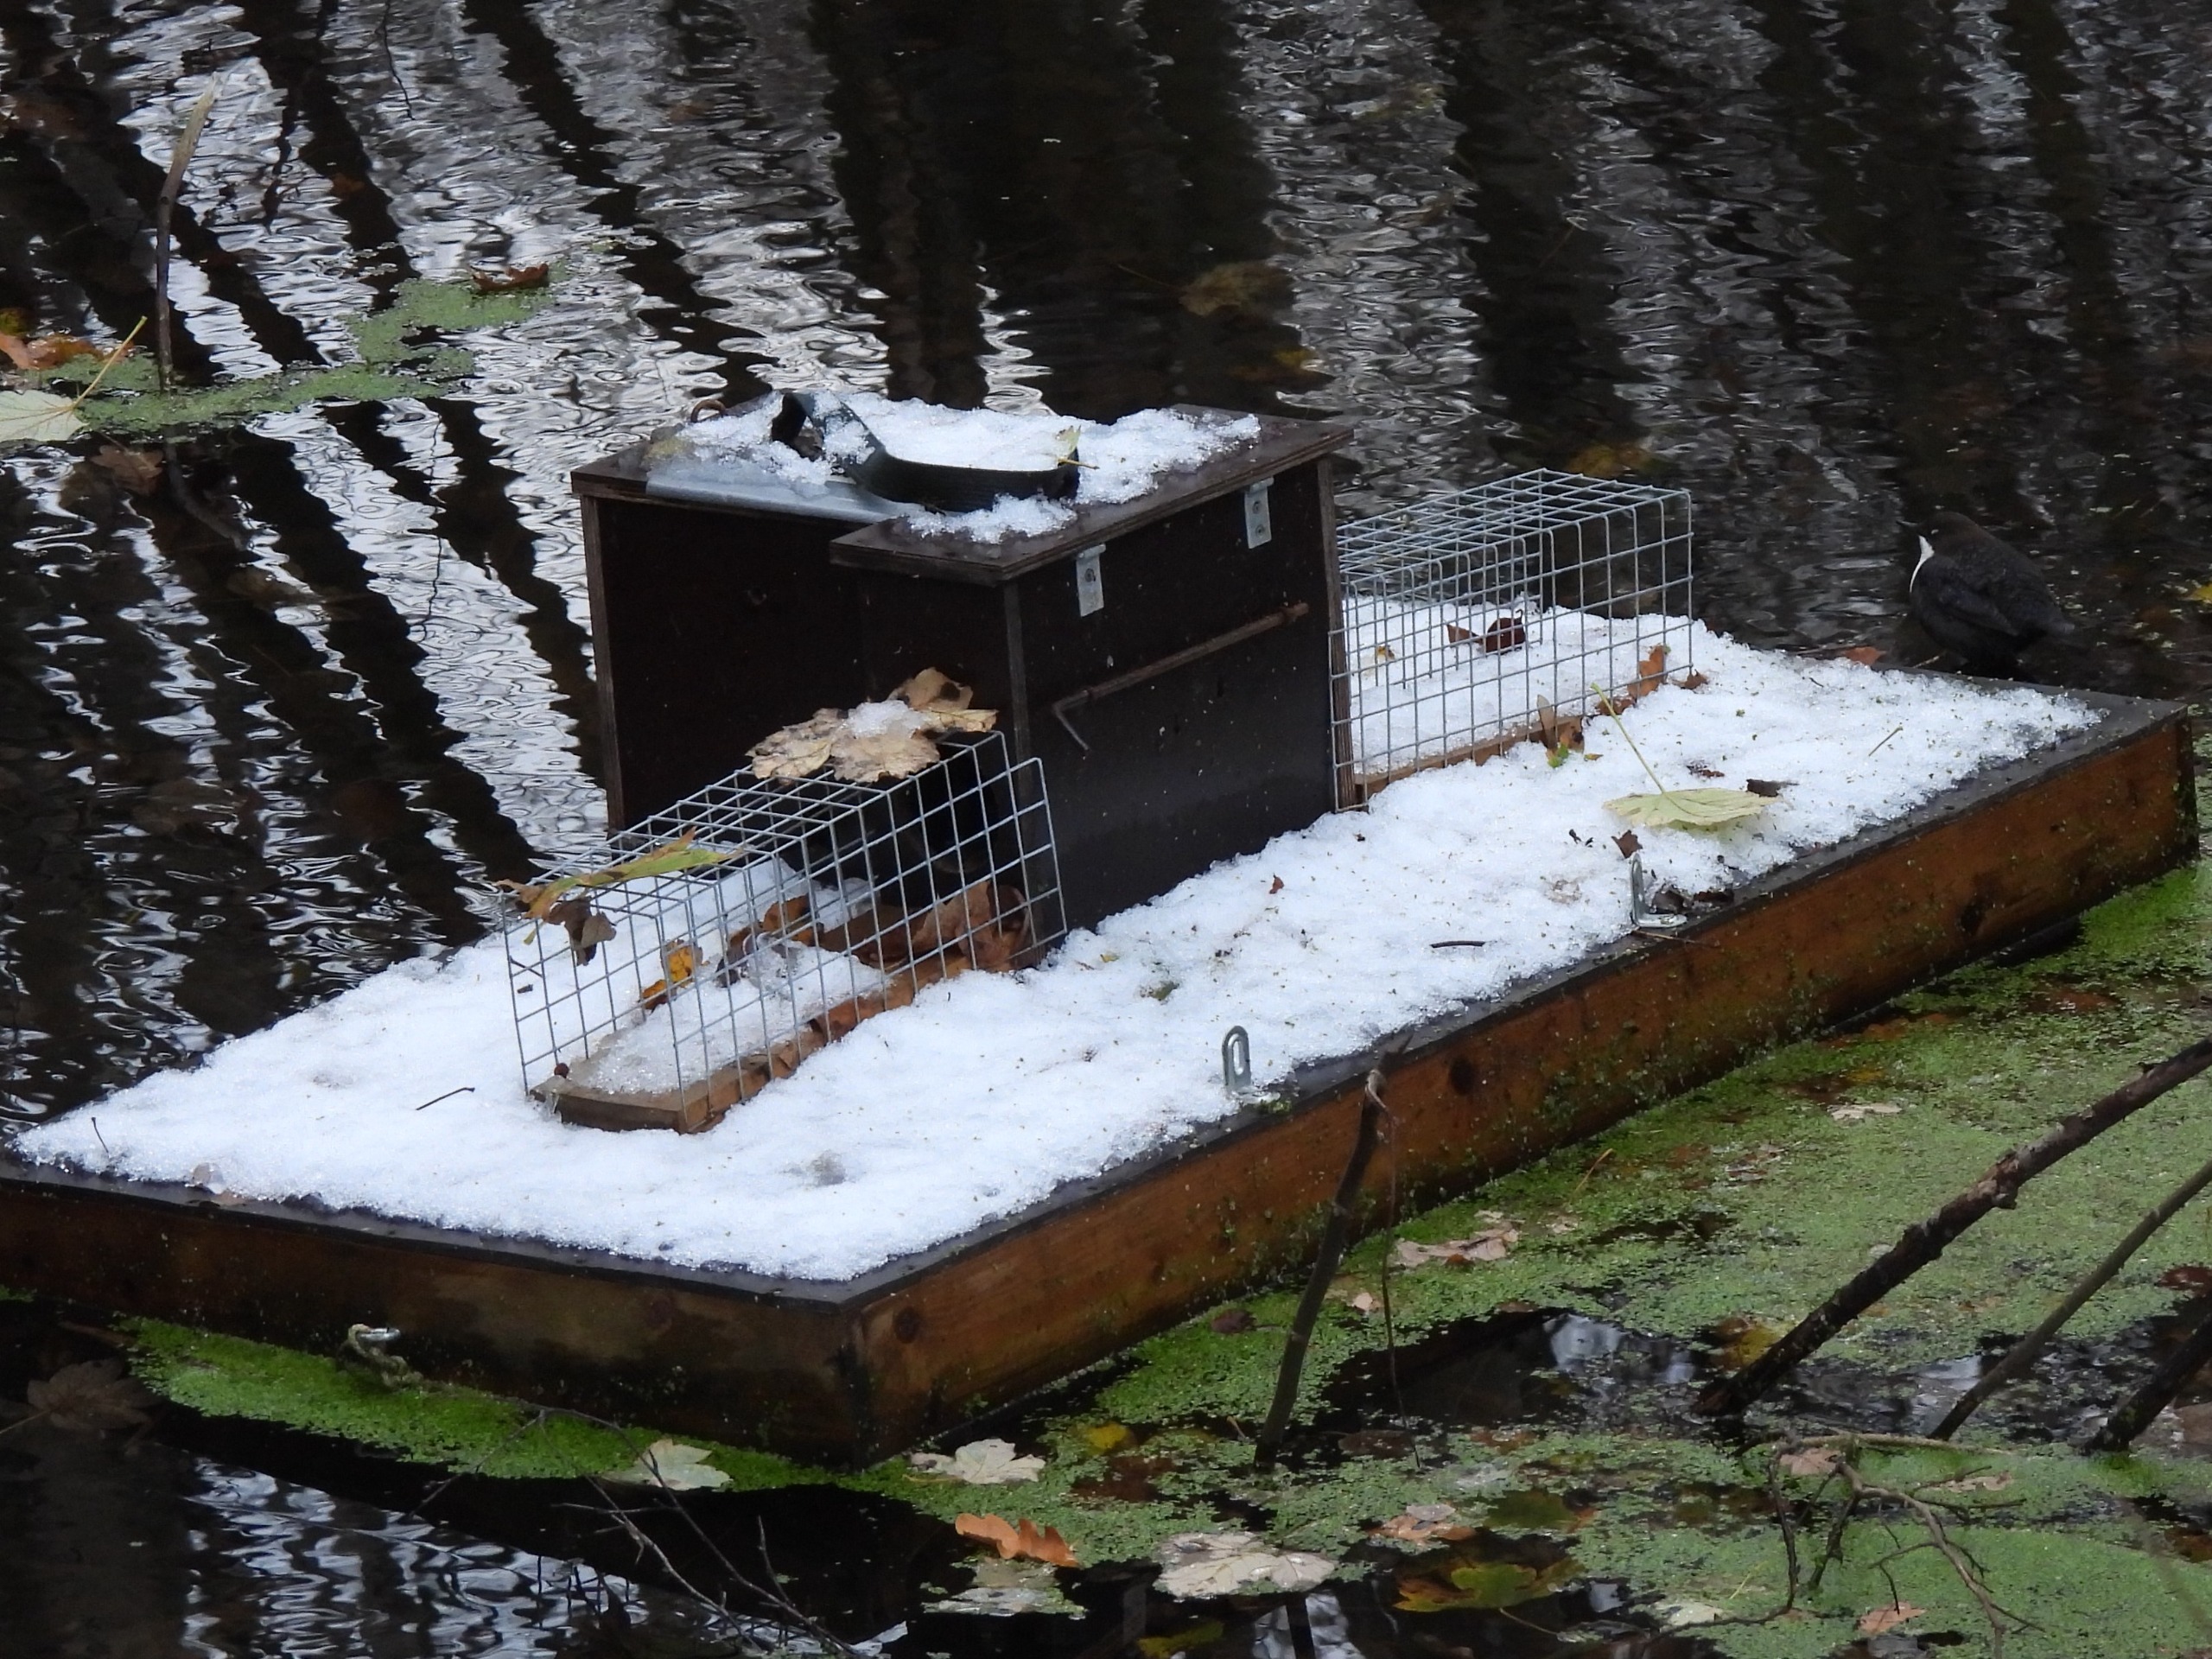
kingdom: Animalia
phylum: Chordata
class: Aves
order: Passeriformes
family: Cinclidae
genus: Cinclus
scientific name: Cinclus cinclus
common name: Vandstær
